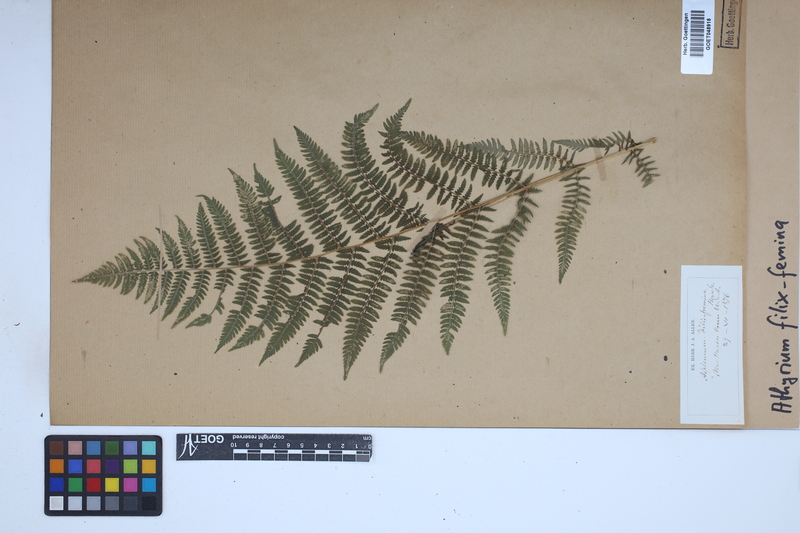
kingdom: Plantae
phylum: Tracheophyta
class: Polypodiopsida
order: Polypodiales
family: Athyriaceae
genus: Athyrium
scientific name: Athyrium filix-femina
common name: Lady fern
